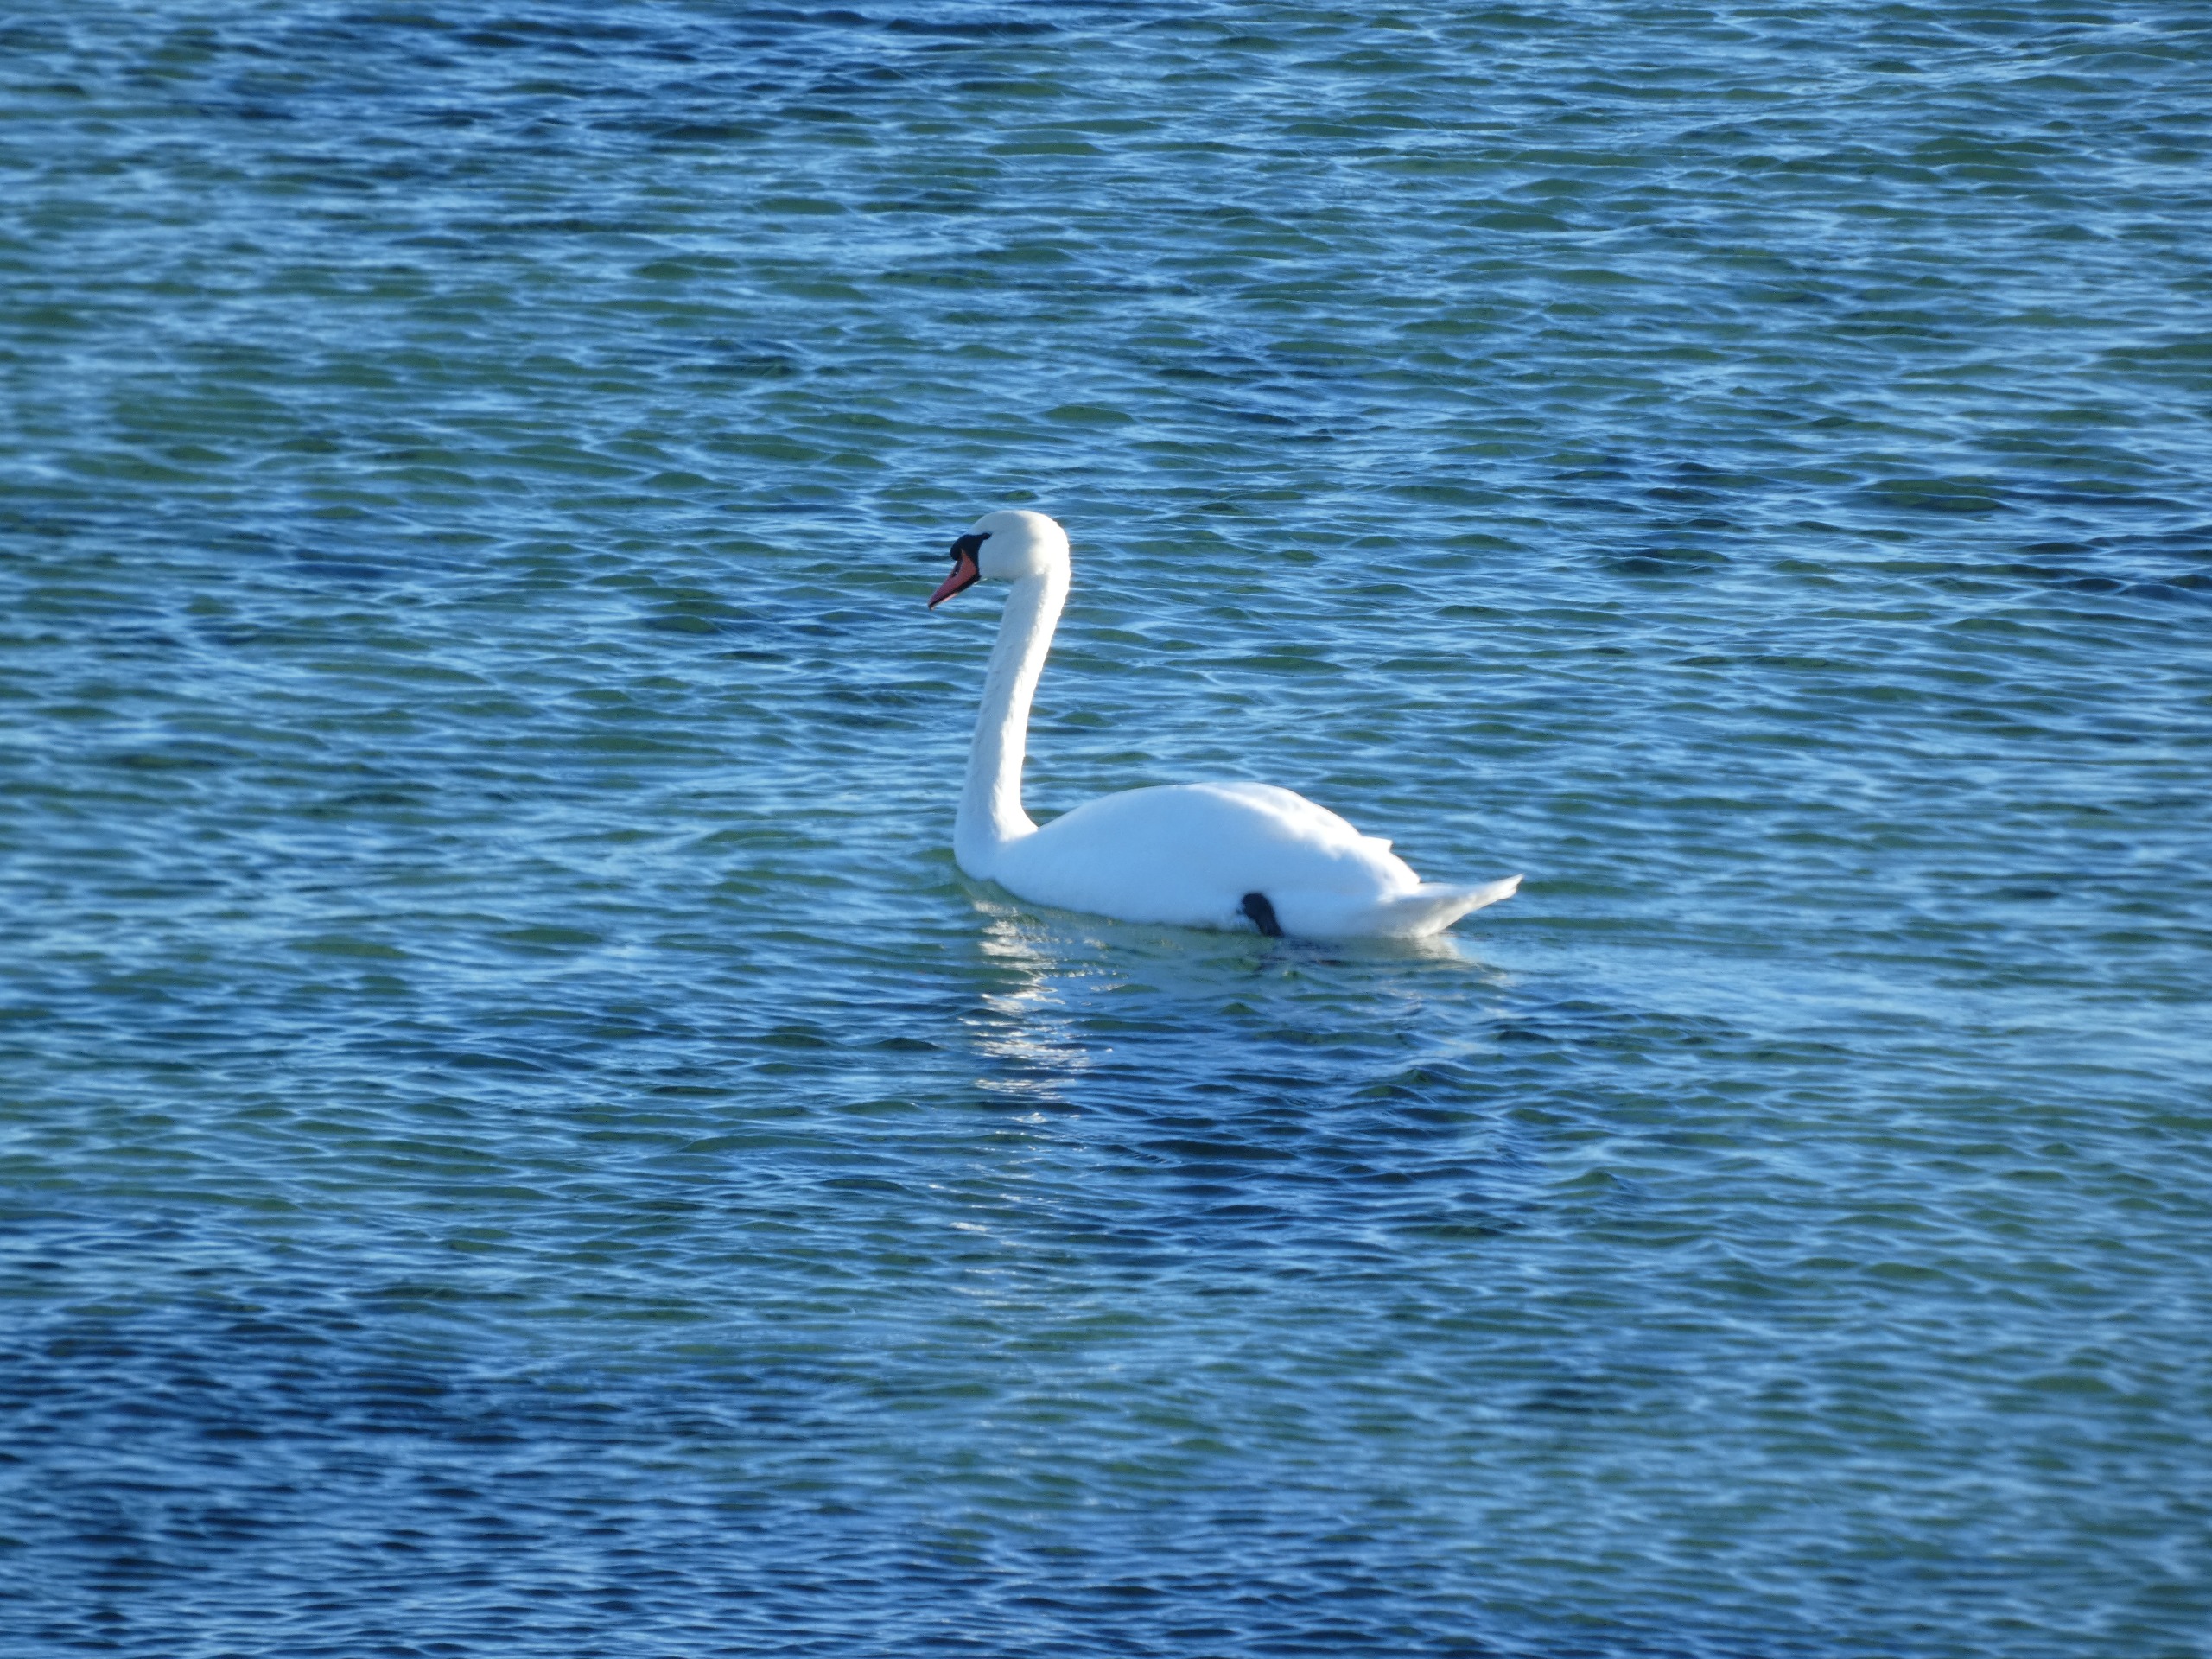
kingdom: Animalia
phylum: Chordata
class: Aves
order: Anseriformes
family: Anatidae
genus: Cygnus
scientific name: Cygnus olor
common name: Knopsvane
